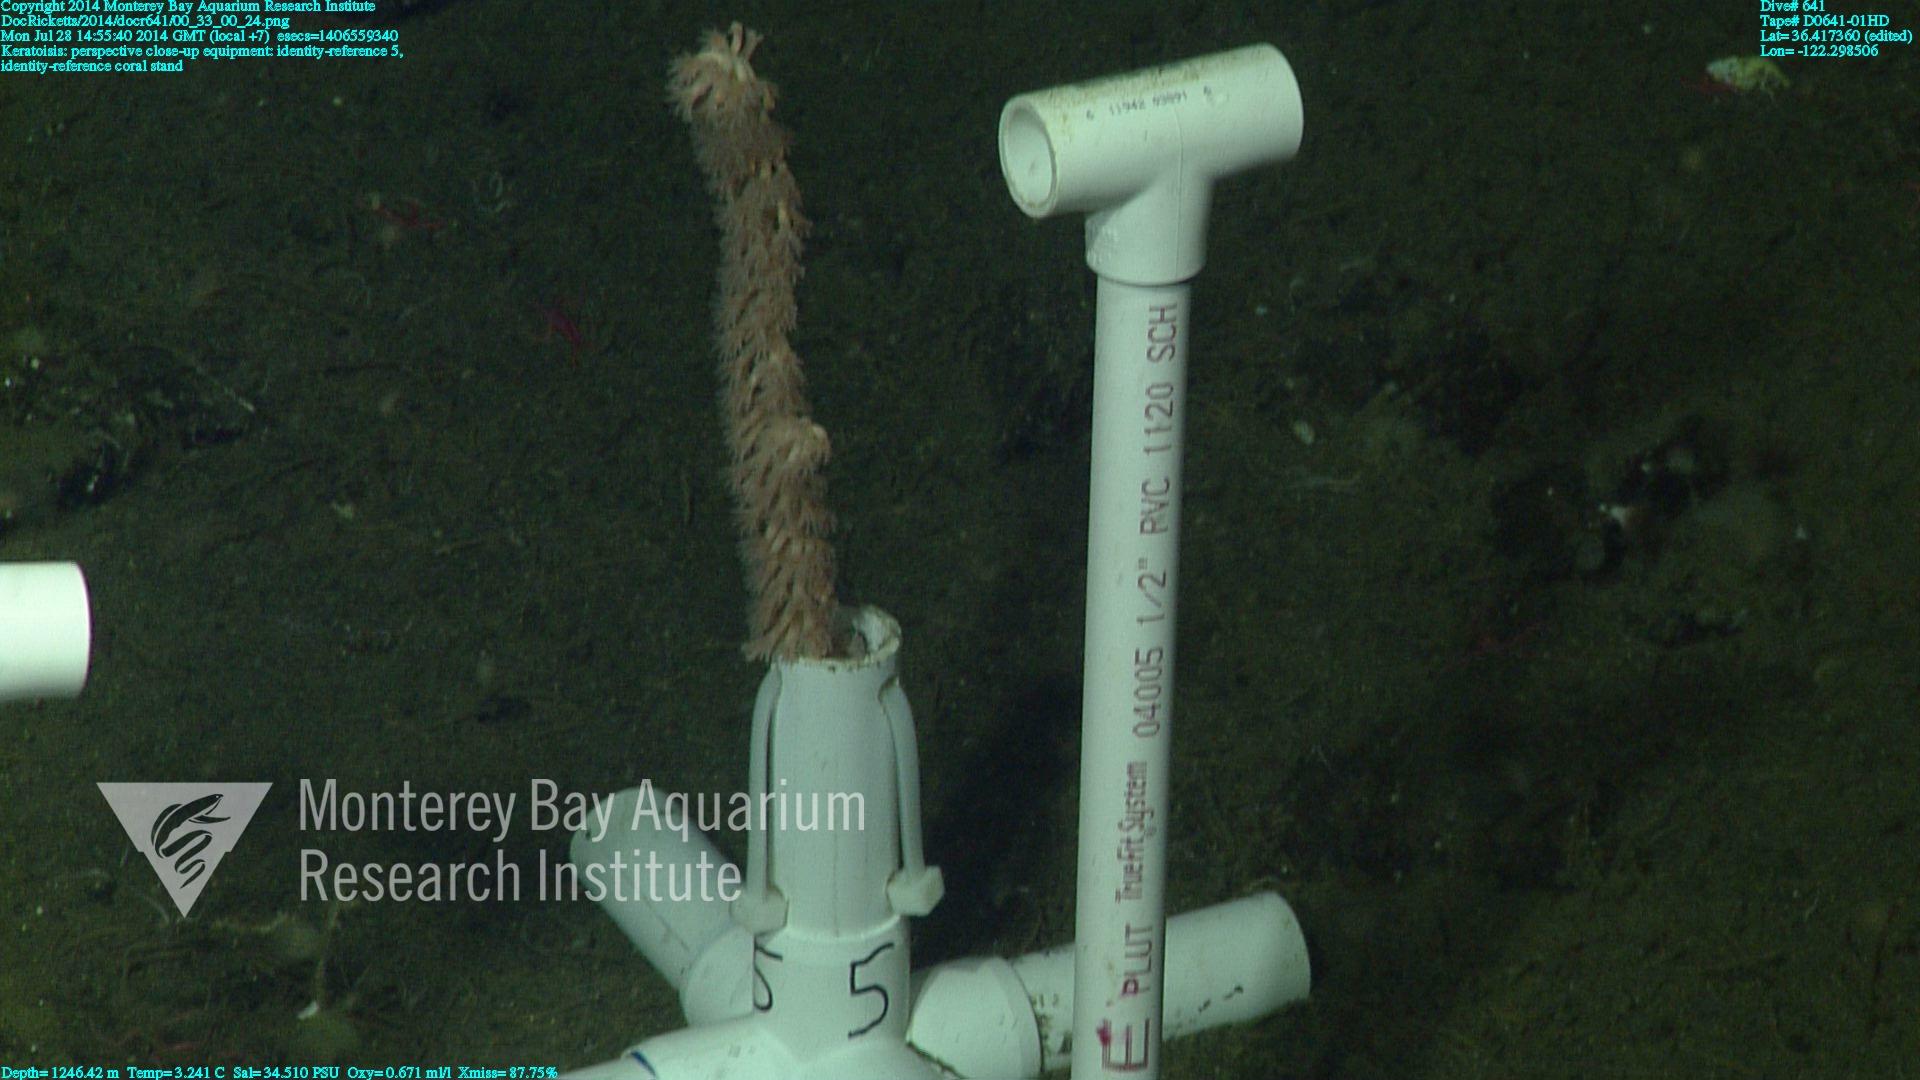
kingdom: Animalia
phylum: Cnidaria
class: Anthozoa
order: Scleralcyonacea
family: Keratoisididae
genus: Keratoisis
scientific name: Keratoisis
